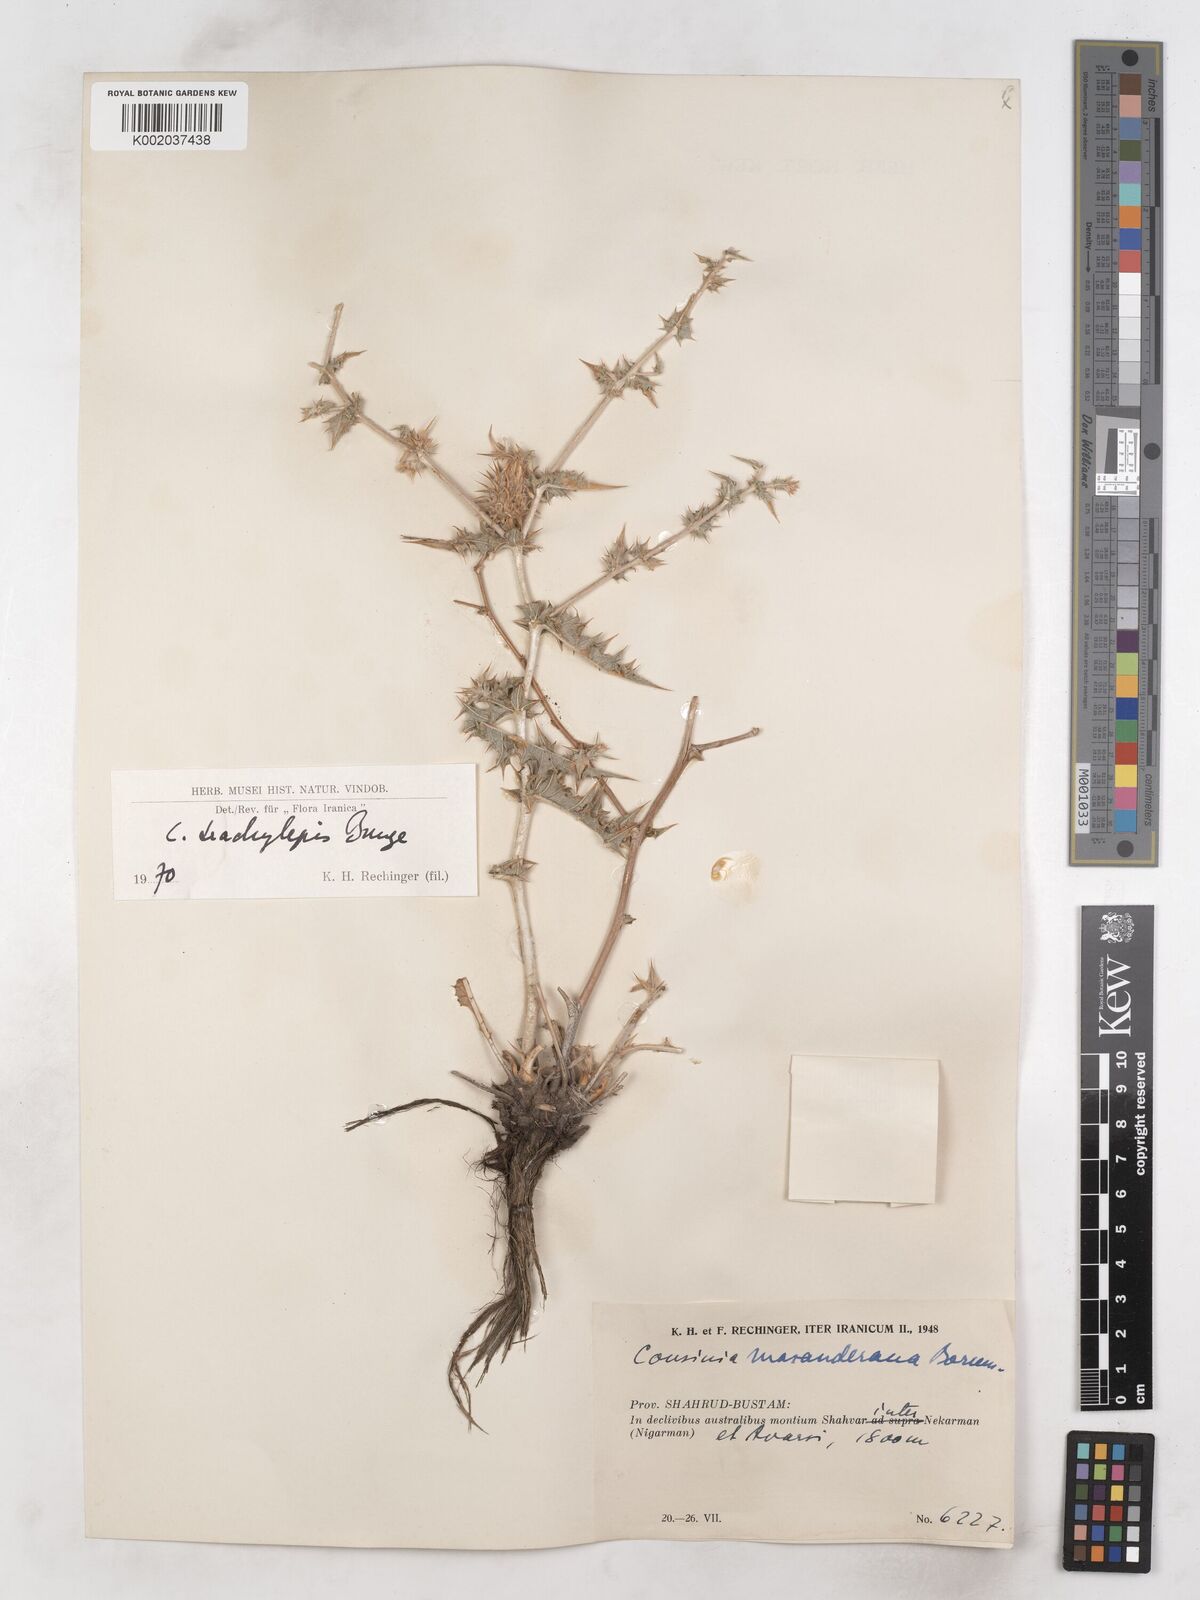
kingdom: Plantae
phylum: Tracheophyta
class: Magnoliopsida
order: Asterales
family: Asteraceae
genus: Cousinia
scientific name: Cousinia trachylepis
